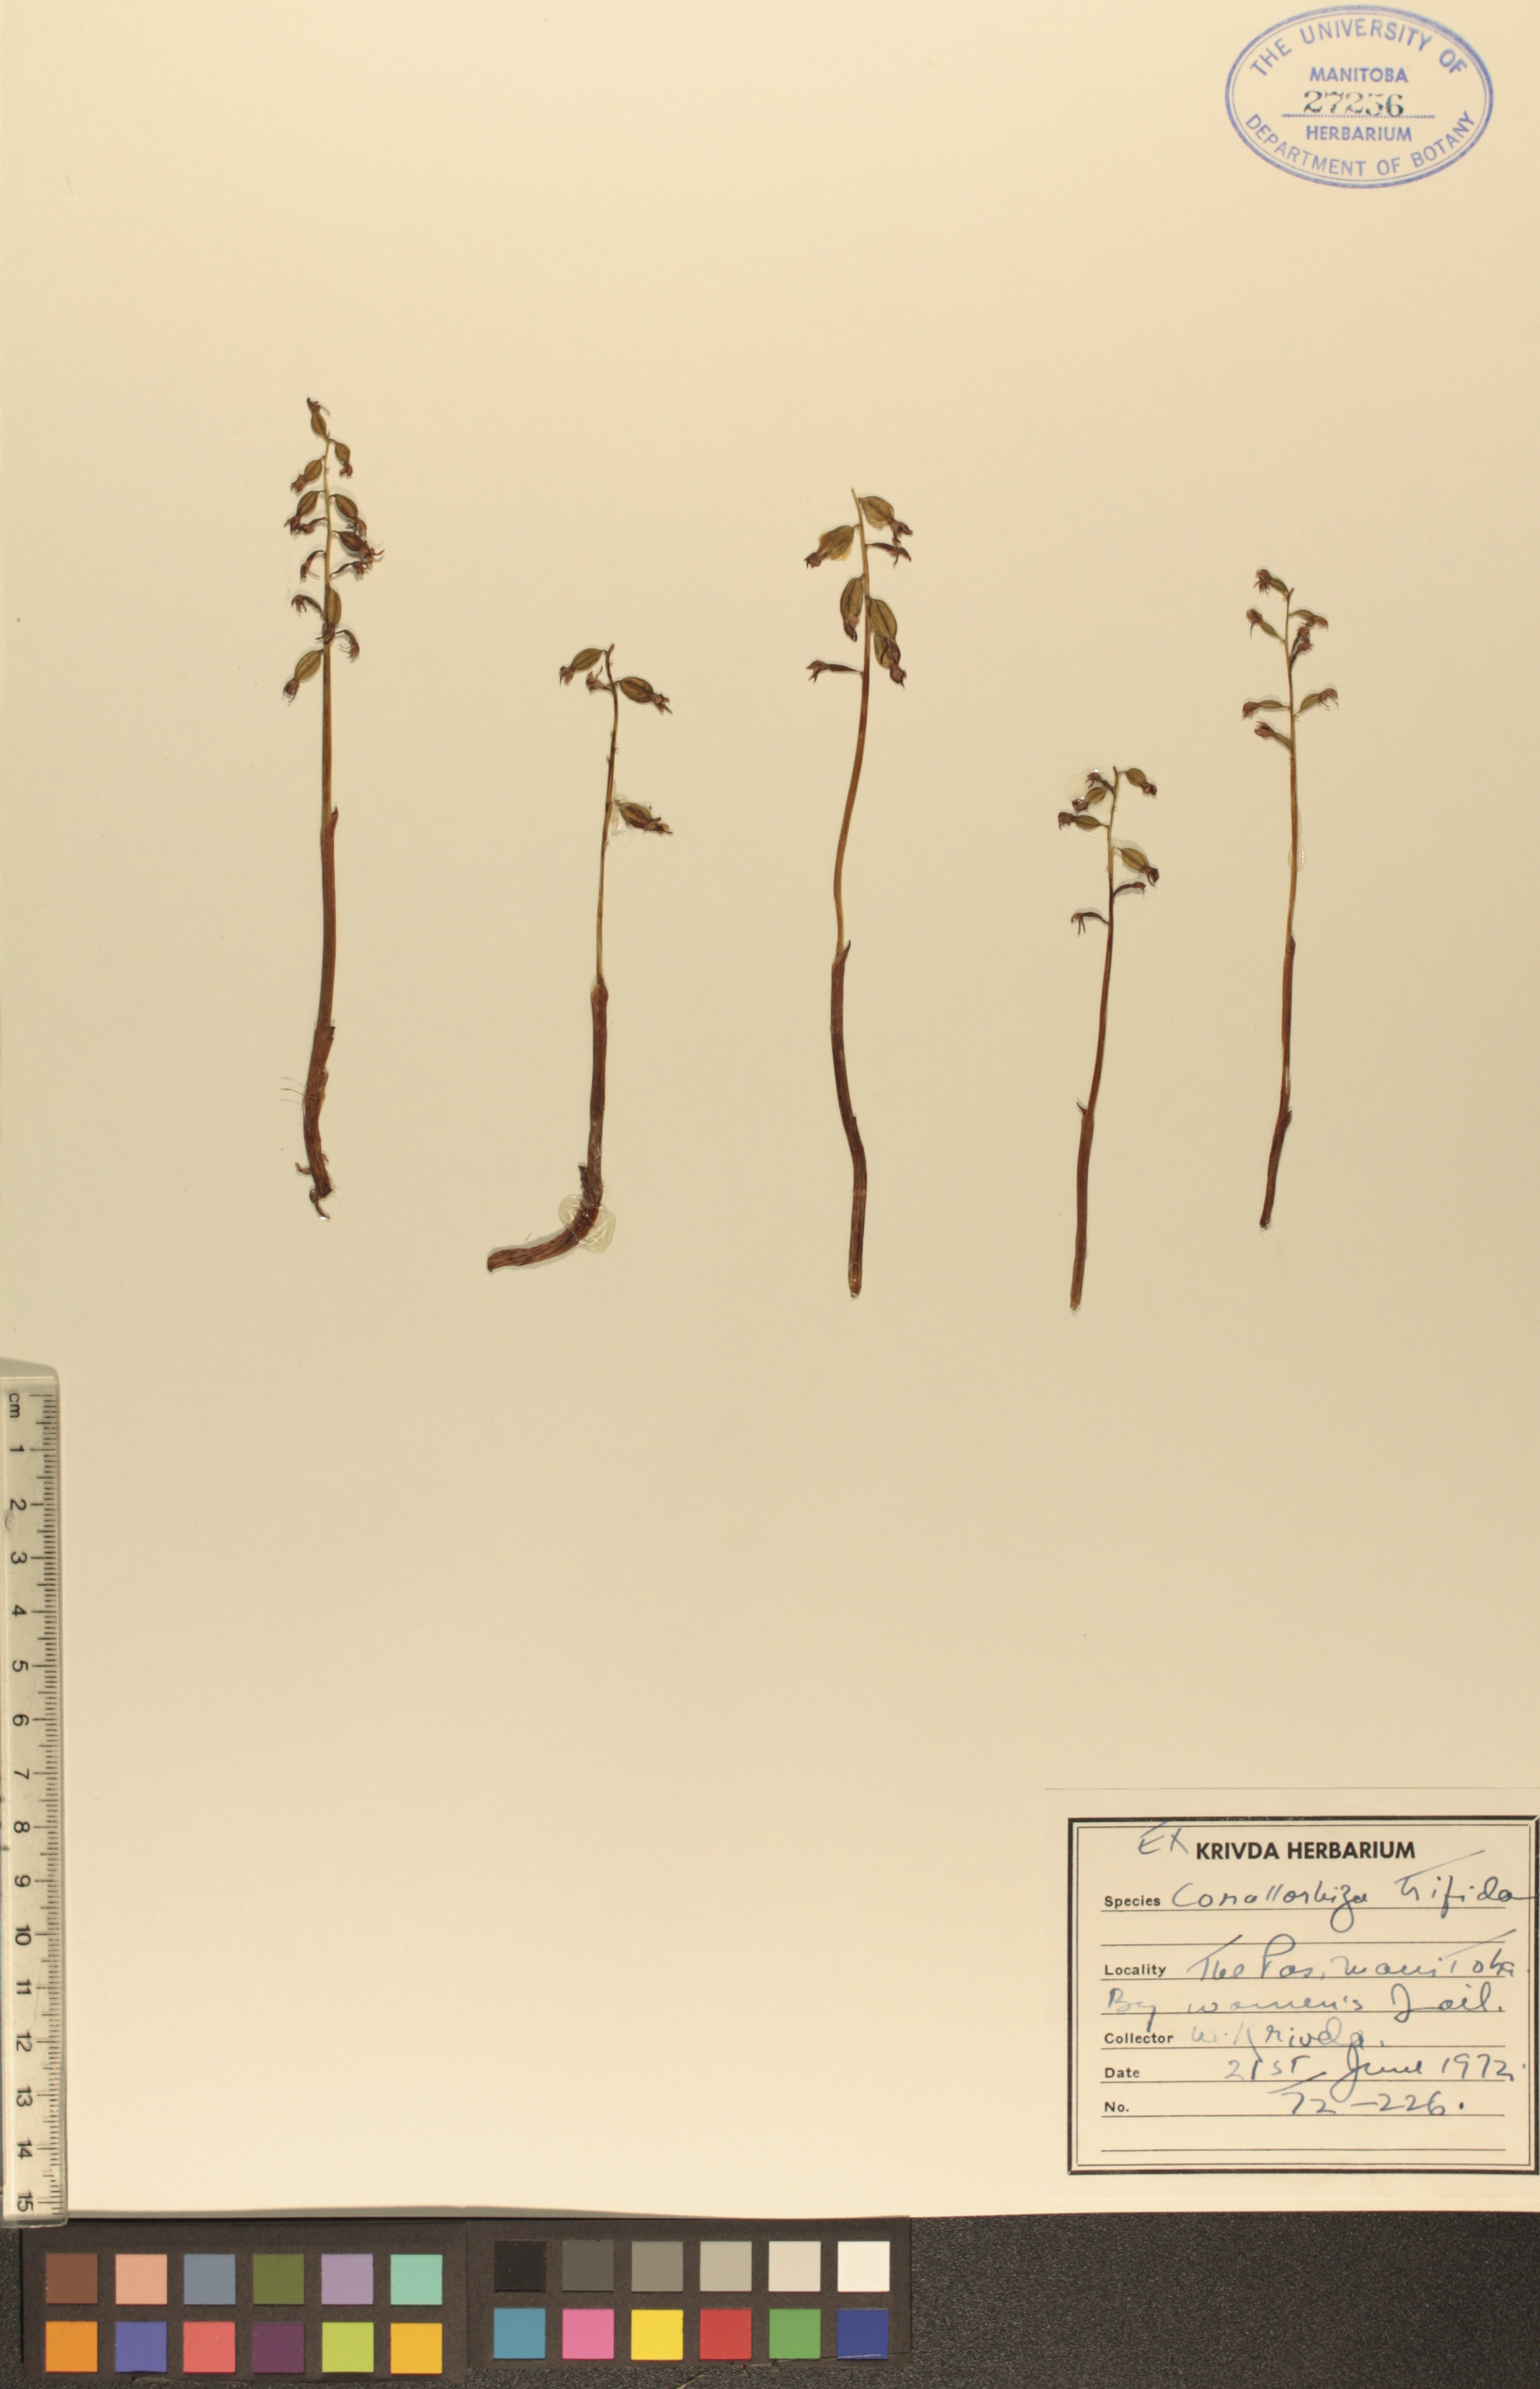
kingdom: Plantae
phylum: Tracheophyta
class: Liliopsida
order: Asparagales
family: Orchidaceae
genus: Corallorhiza
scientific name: Corallorhiza trifida
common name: Yellow coralroot
